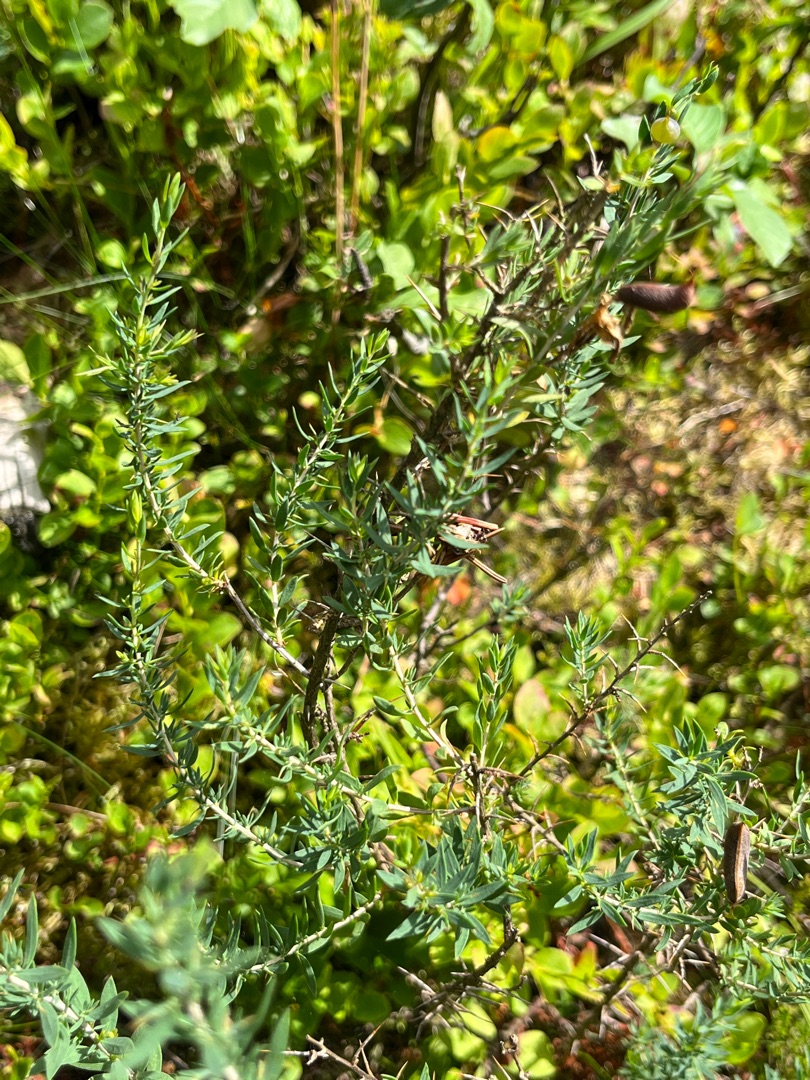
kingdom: Plantae
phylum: Tracheophyta
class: Magnoliopsida
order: Fabales
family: Fabaceae
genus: Genista
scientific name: Genista anglica
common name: Engelsk visse
